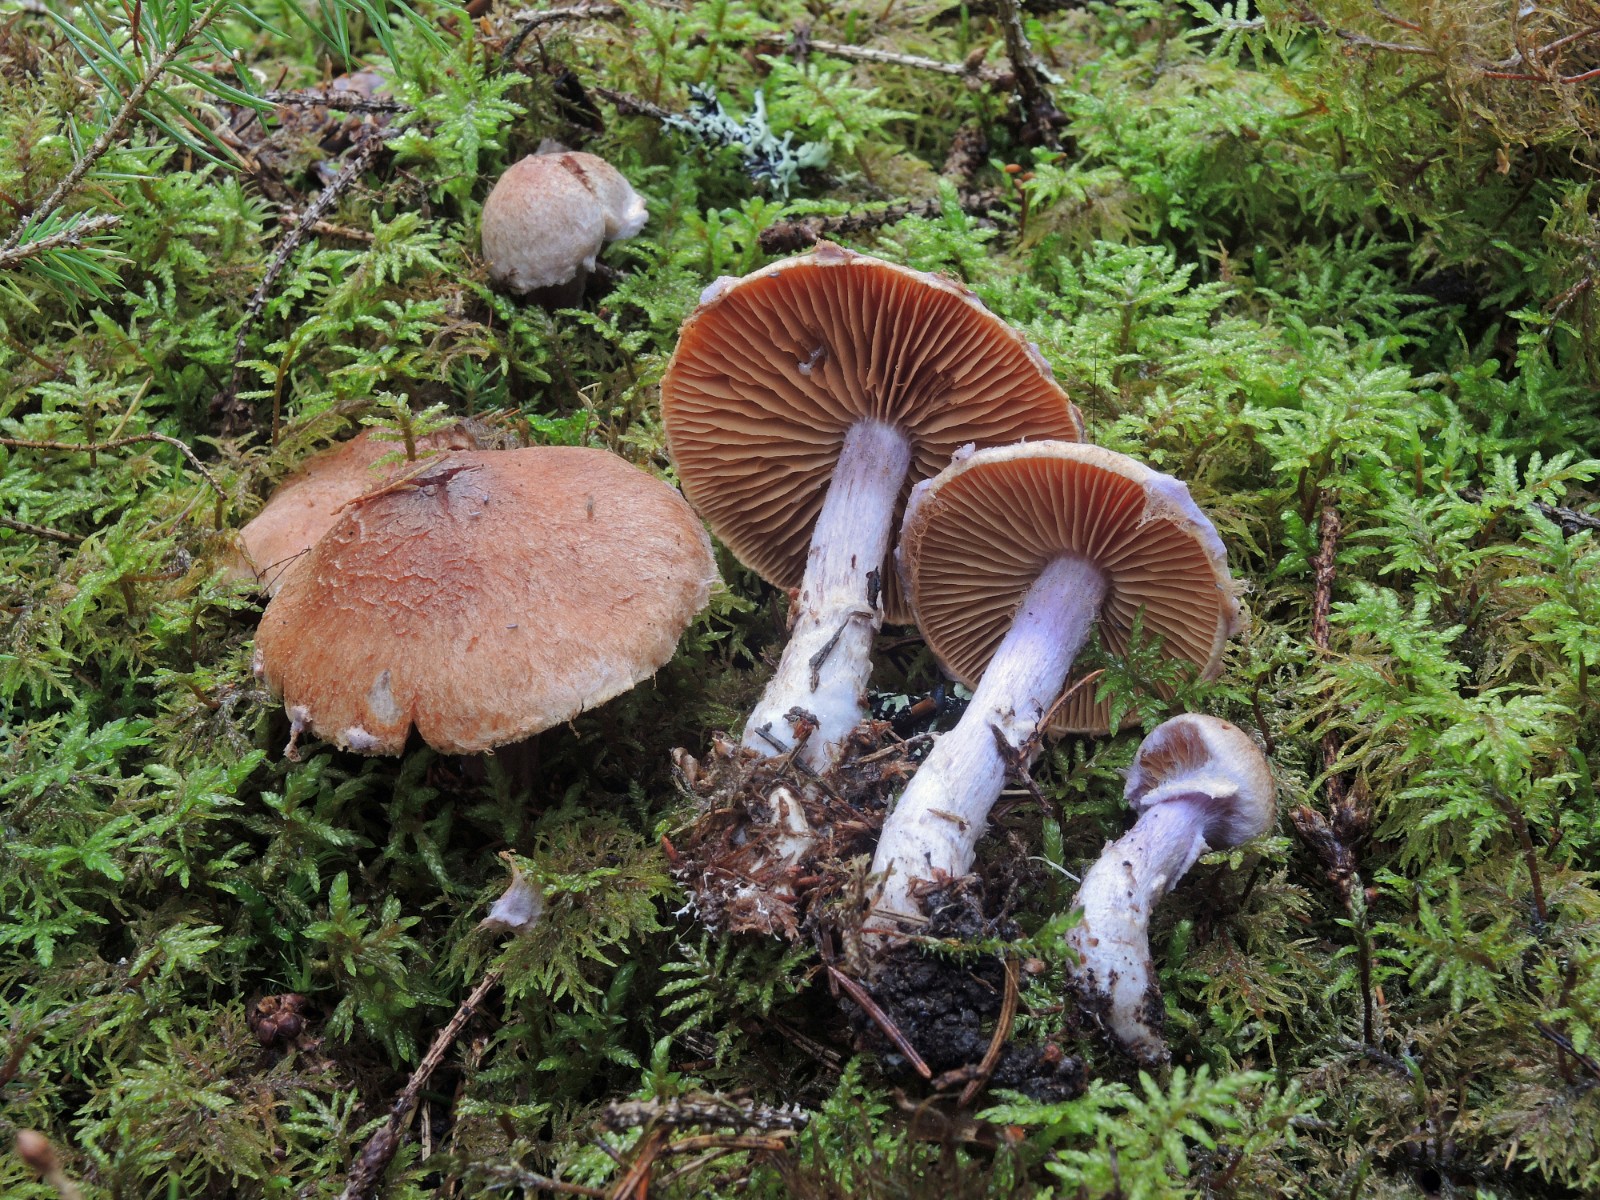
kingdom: Fungi
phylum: Basidiomycota
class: Agaricomycetes
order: Agaricales
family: Cortinariaceae
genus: Cortinarius
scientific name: Cortinarius venustus
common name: violetstokket slørhat
